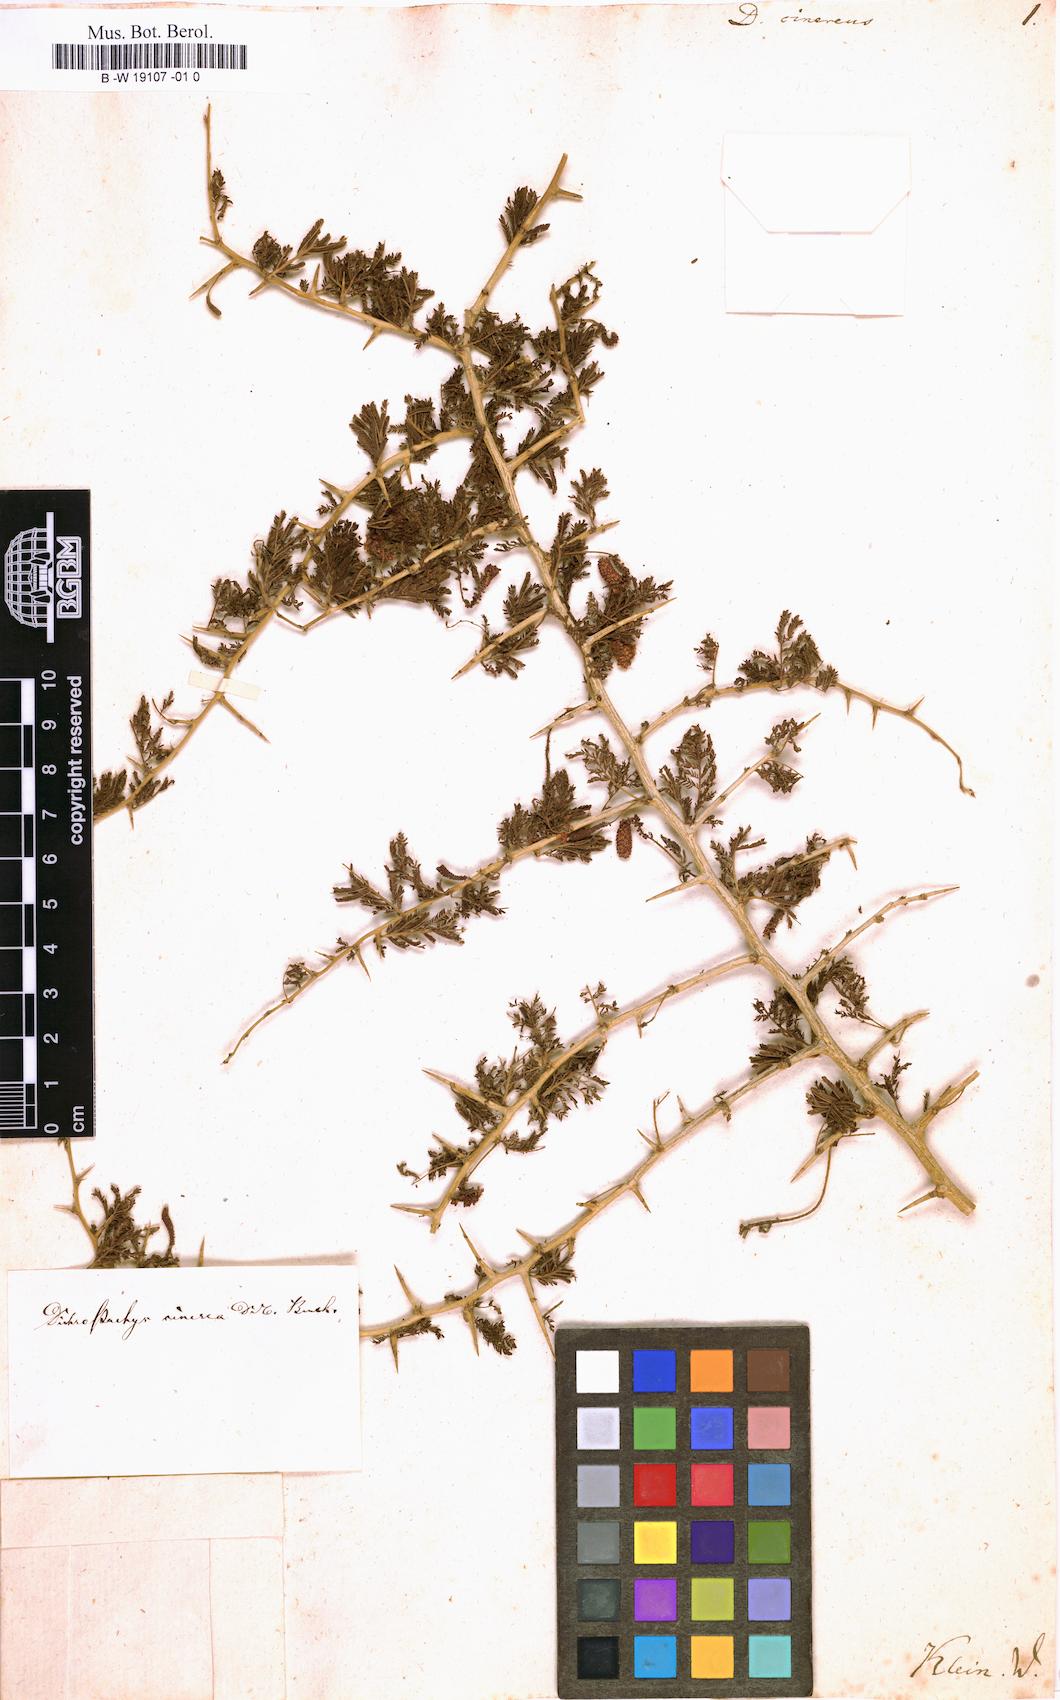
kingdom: Plantae
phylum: Tracheophyta
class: Magnoliopsida
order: Fabales
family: Fabaceae
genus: Dichrostachys
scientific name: Dichrostachys cinerea
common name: Sicklebush
